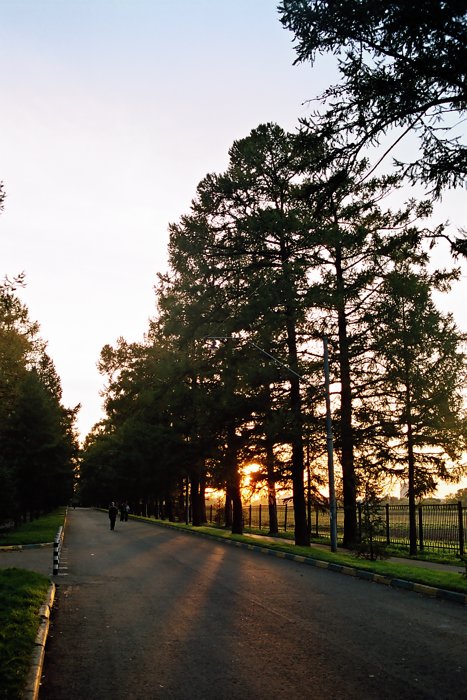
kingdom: Plantae
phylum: Tracheophyta
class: Pinopsida
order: Pinales
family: Pinaceae
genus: Larix
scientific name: Larix
